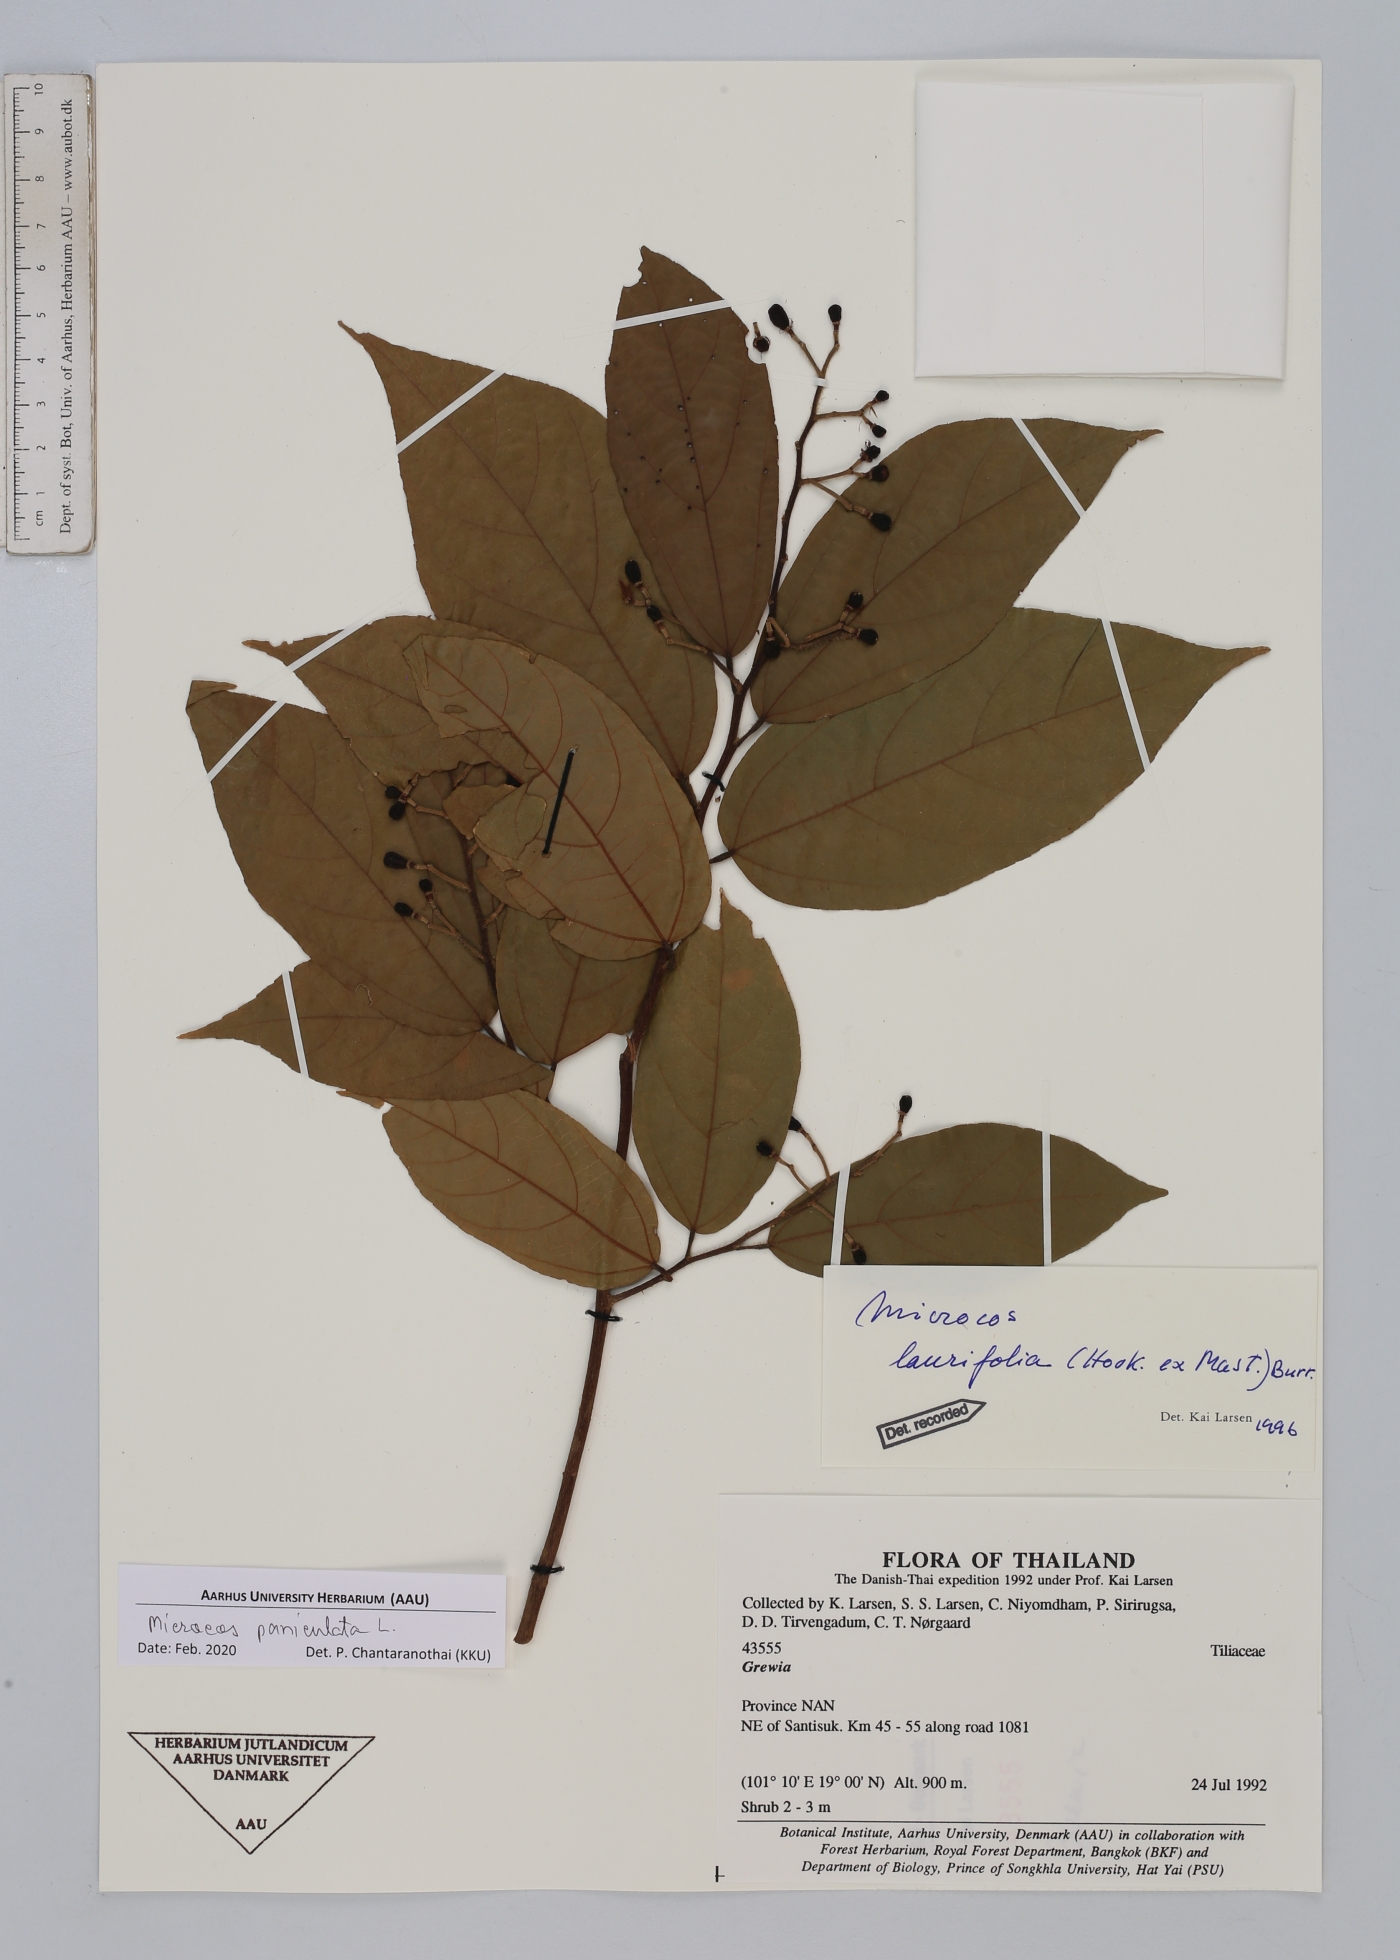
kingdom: Plantae
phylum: Tracheophyta
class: Magnoliopsida
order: Malvales
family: Malvaceae
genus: Microcos
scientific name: Microcos paniculata
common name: Microcos
